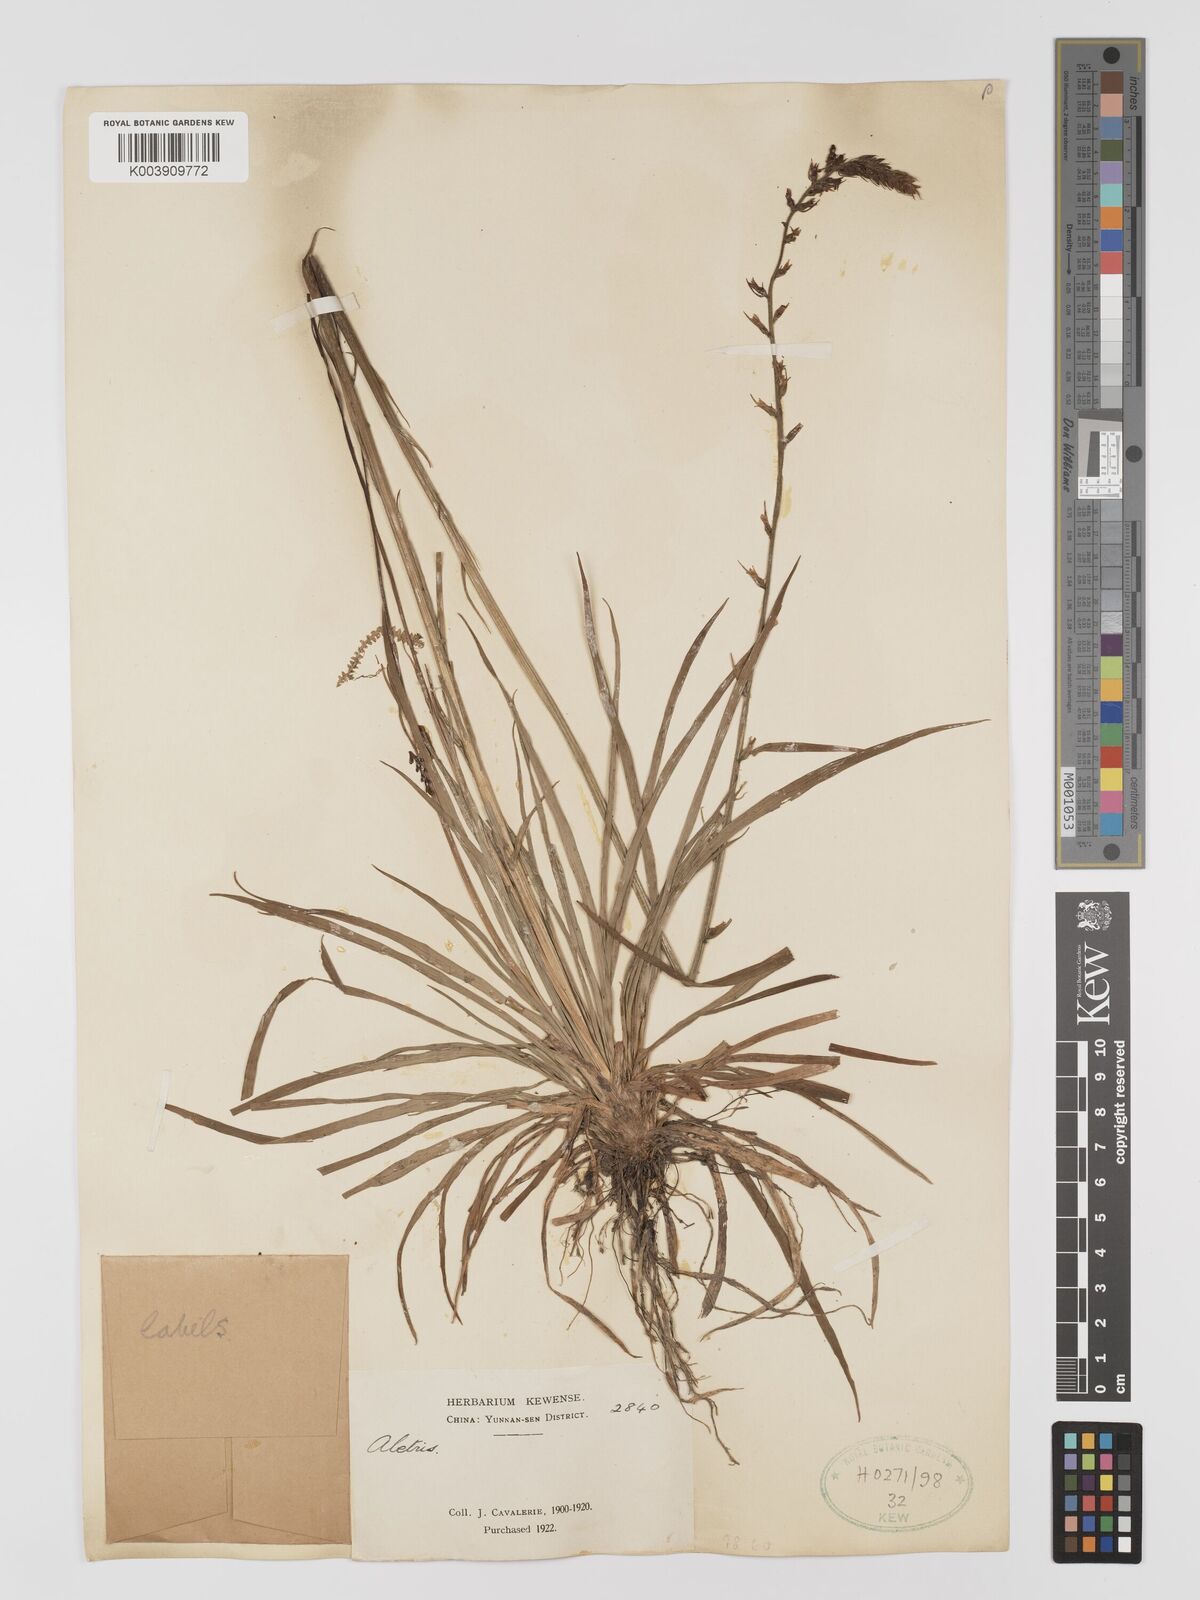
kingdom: Plantae
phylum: Tracheophyta
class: Liliopsida
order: Dioscoreales
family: Nartheciaceae
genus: Aletris
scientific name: Aletris
